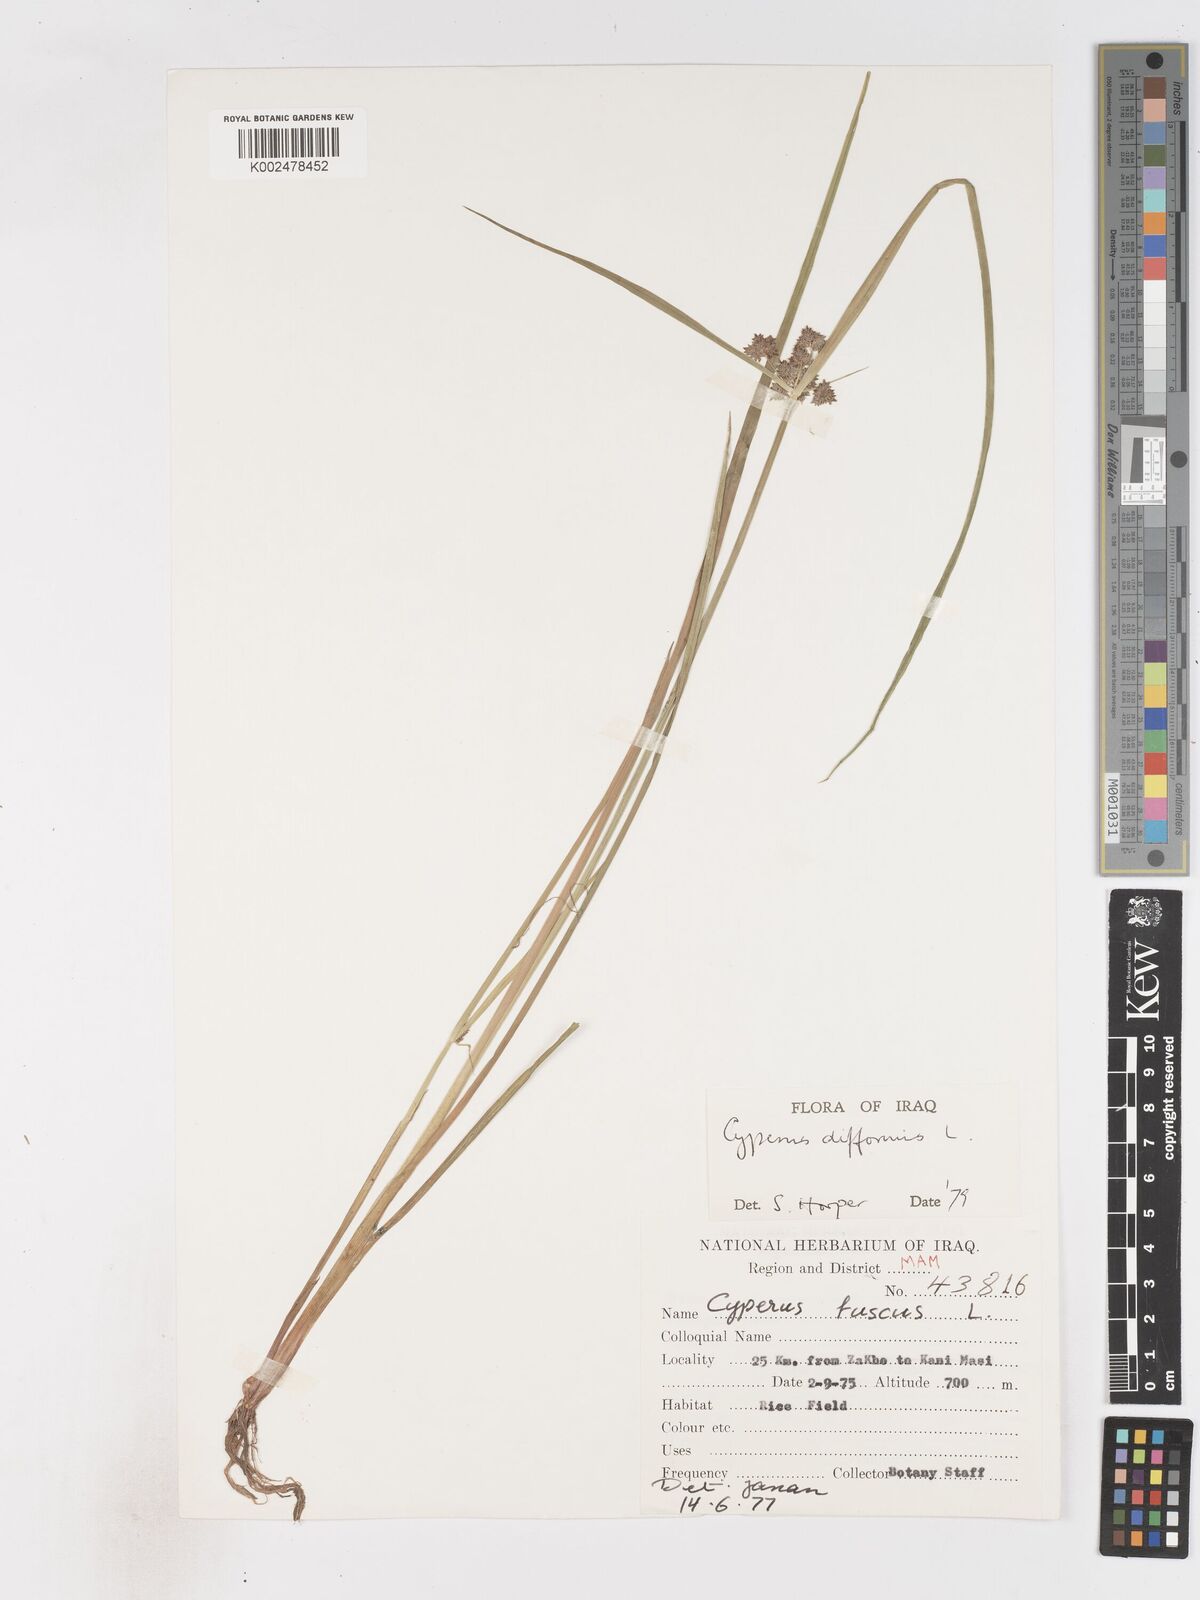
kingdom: Plantae
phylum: Tracheophyta
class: Liliopsida
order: Poales
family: Cyperaceae
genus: Cyperus
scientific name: Cyperus difformis
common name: Variable flatsedge
